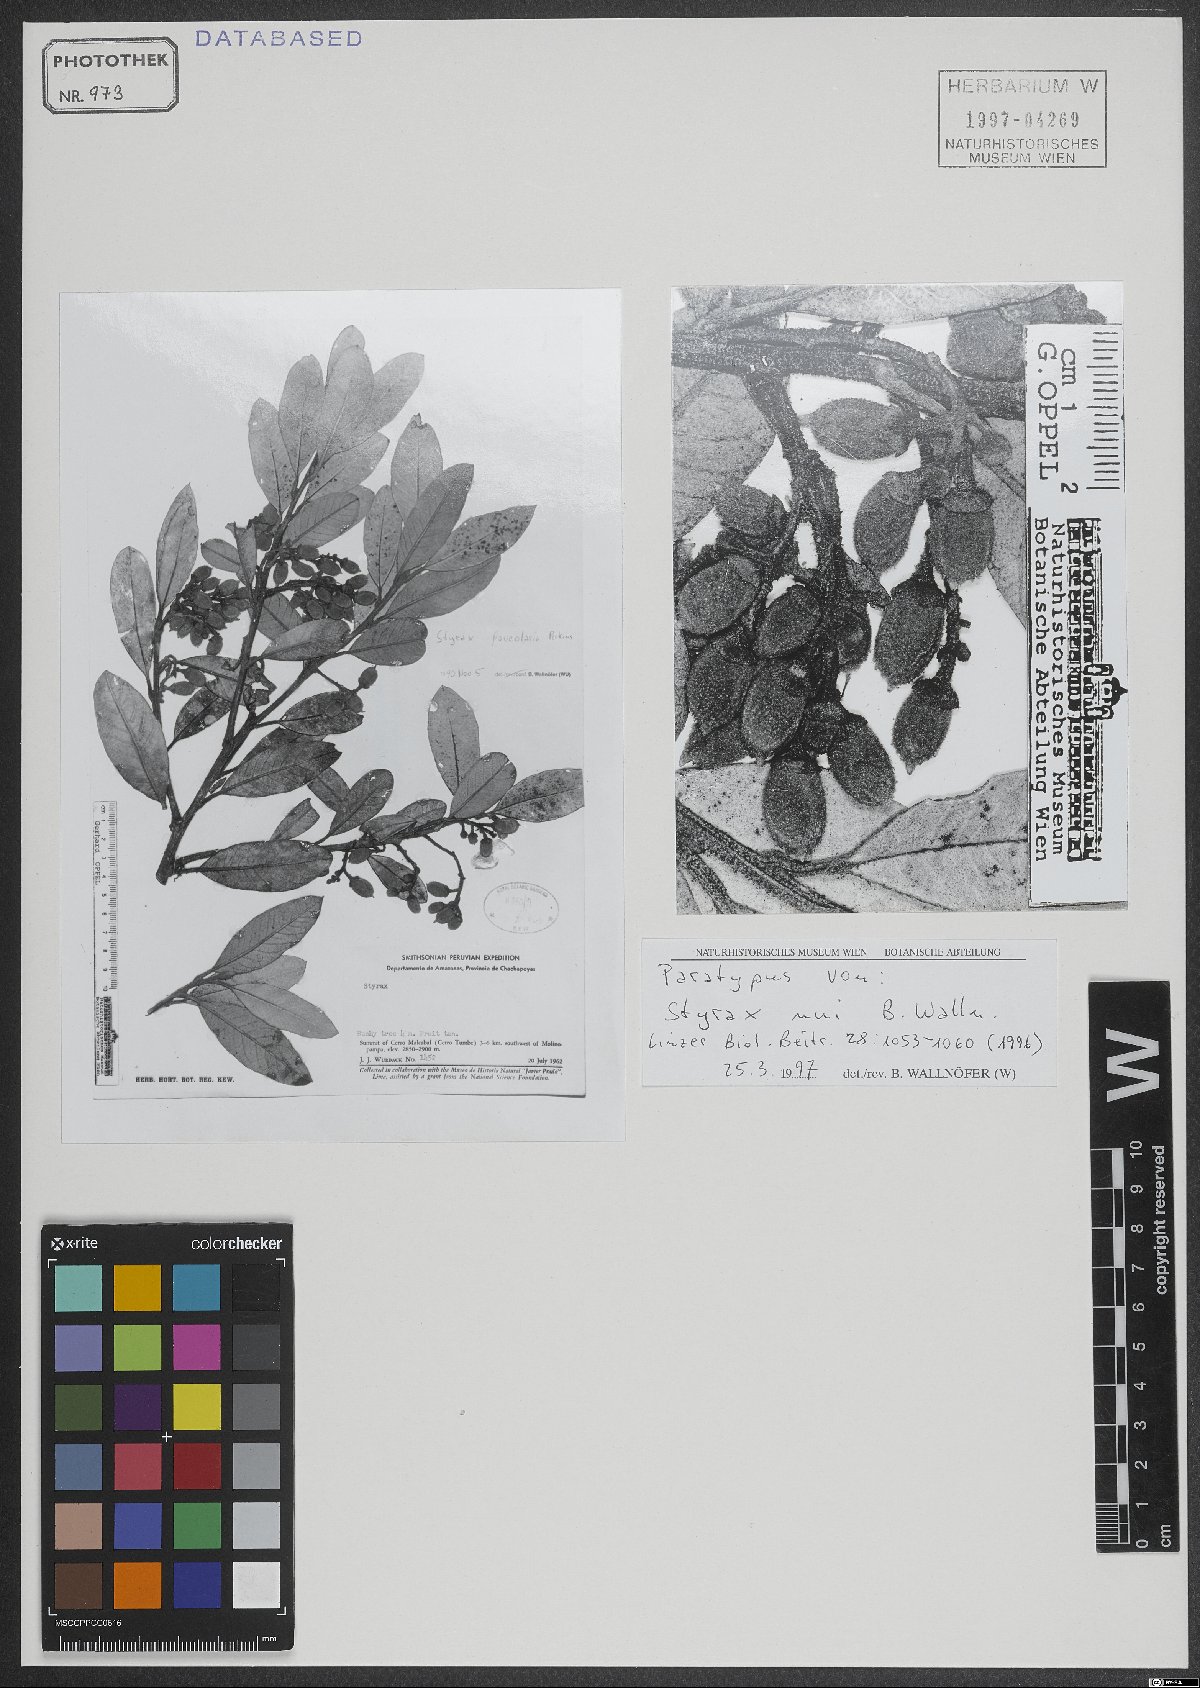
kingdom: Plantae
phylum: Tracheophyta
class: Magnoliopsida
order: Ericales
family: Styracaceae
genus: Styrax
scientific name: Styrax nui
